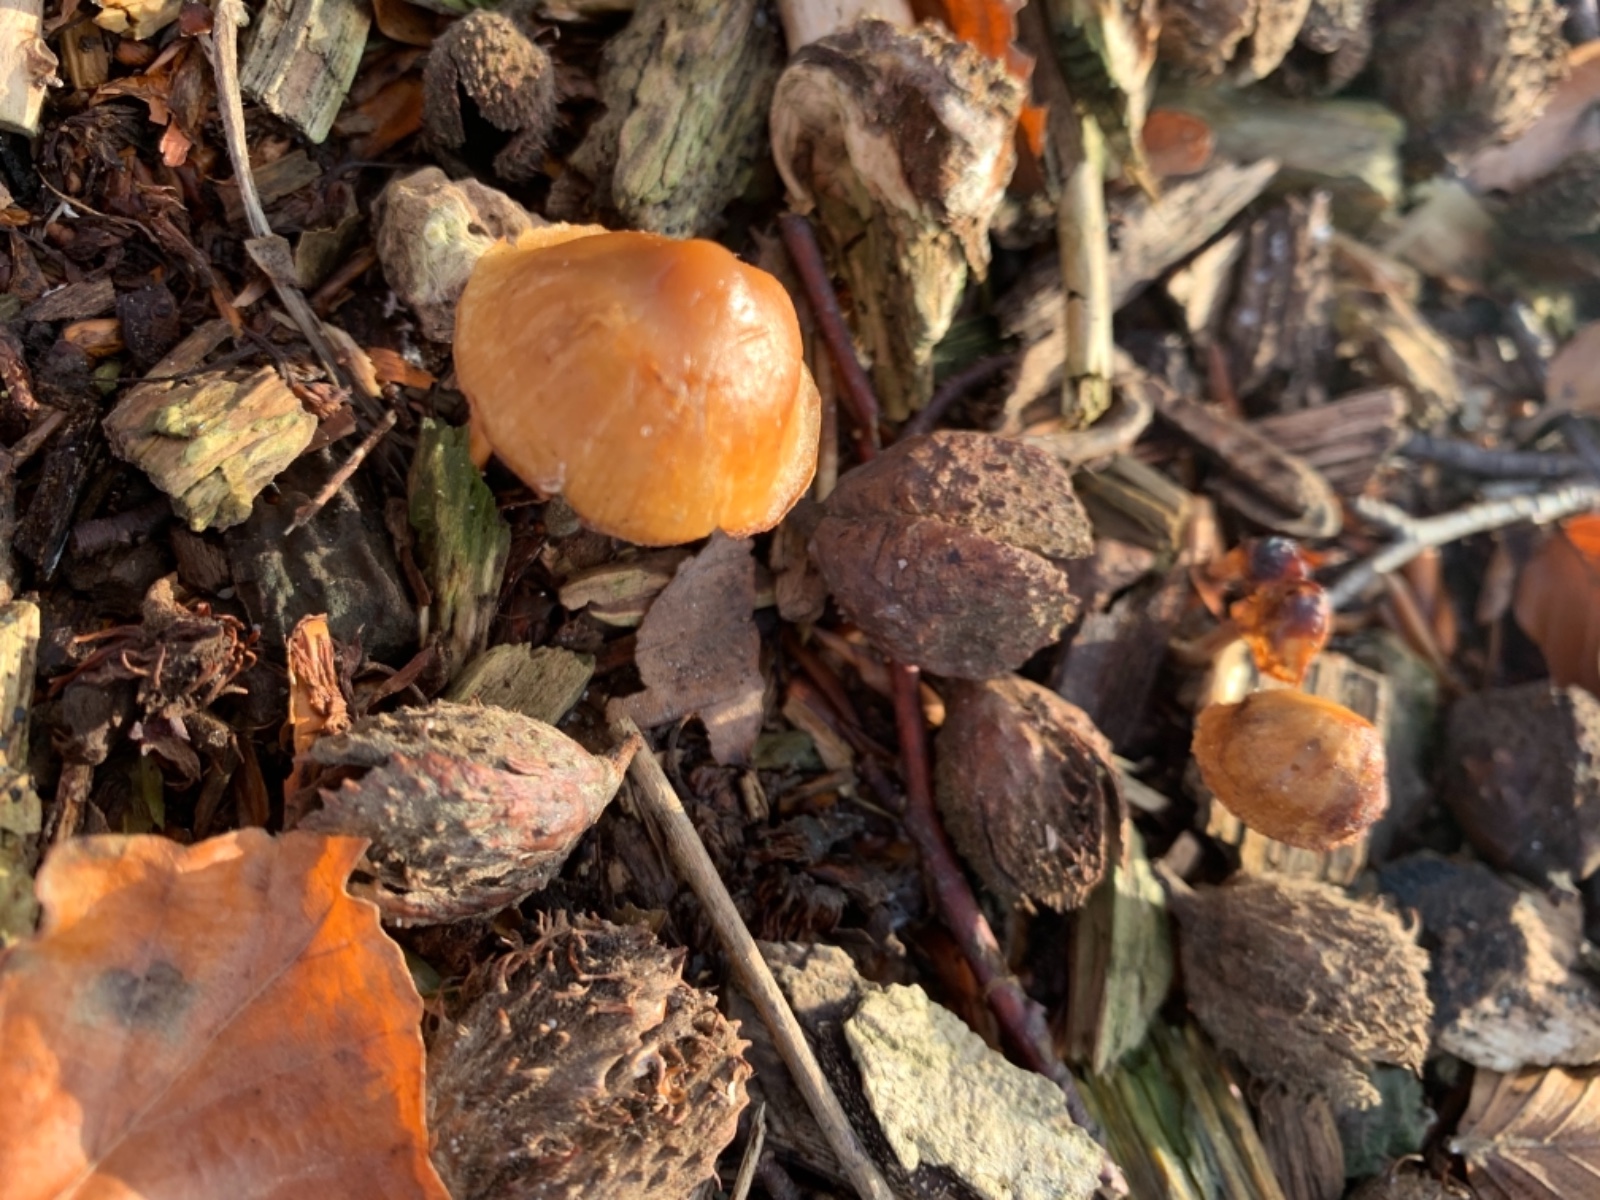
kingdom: Fungi
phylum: Basidiomycota
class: Agaricomycetes
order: Agaricales
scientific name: Agaricales
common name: champignonordenen
